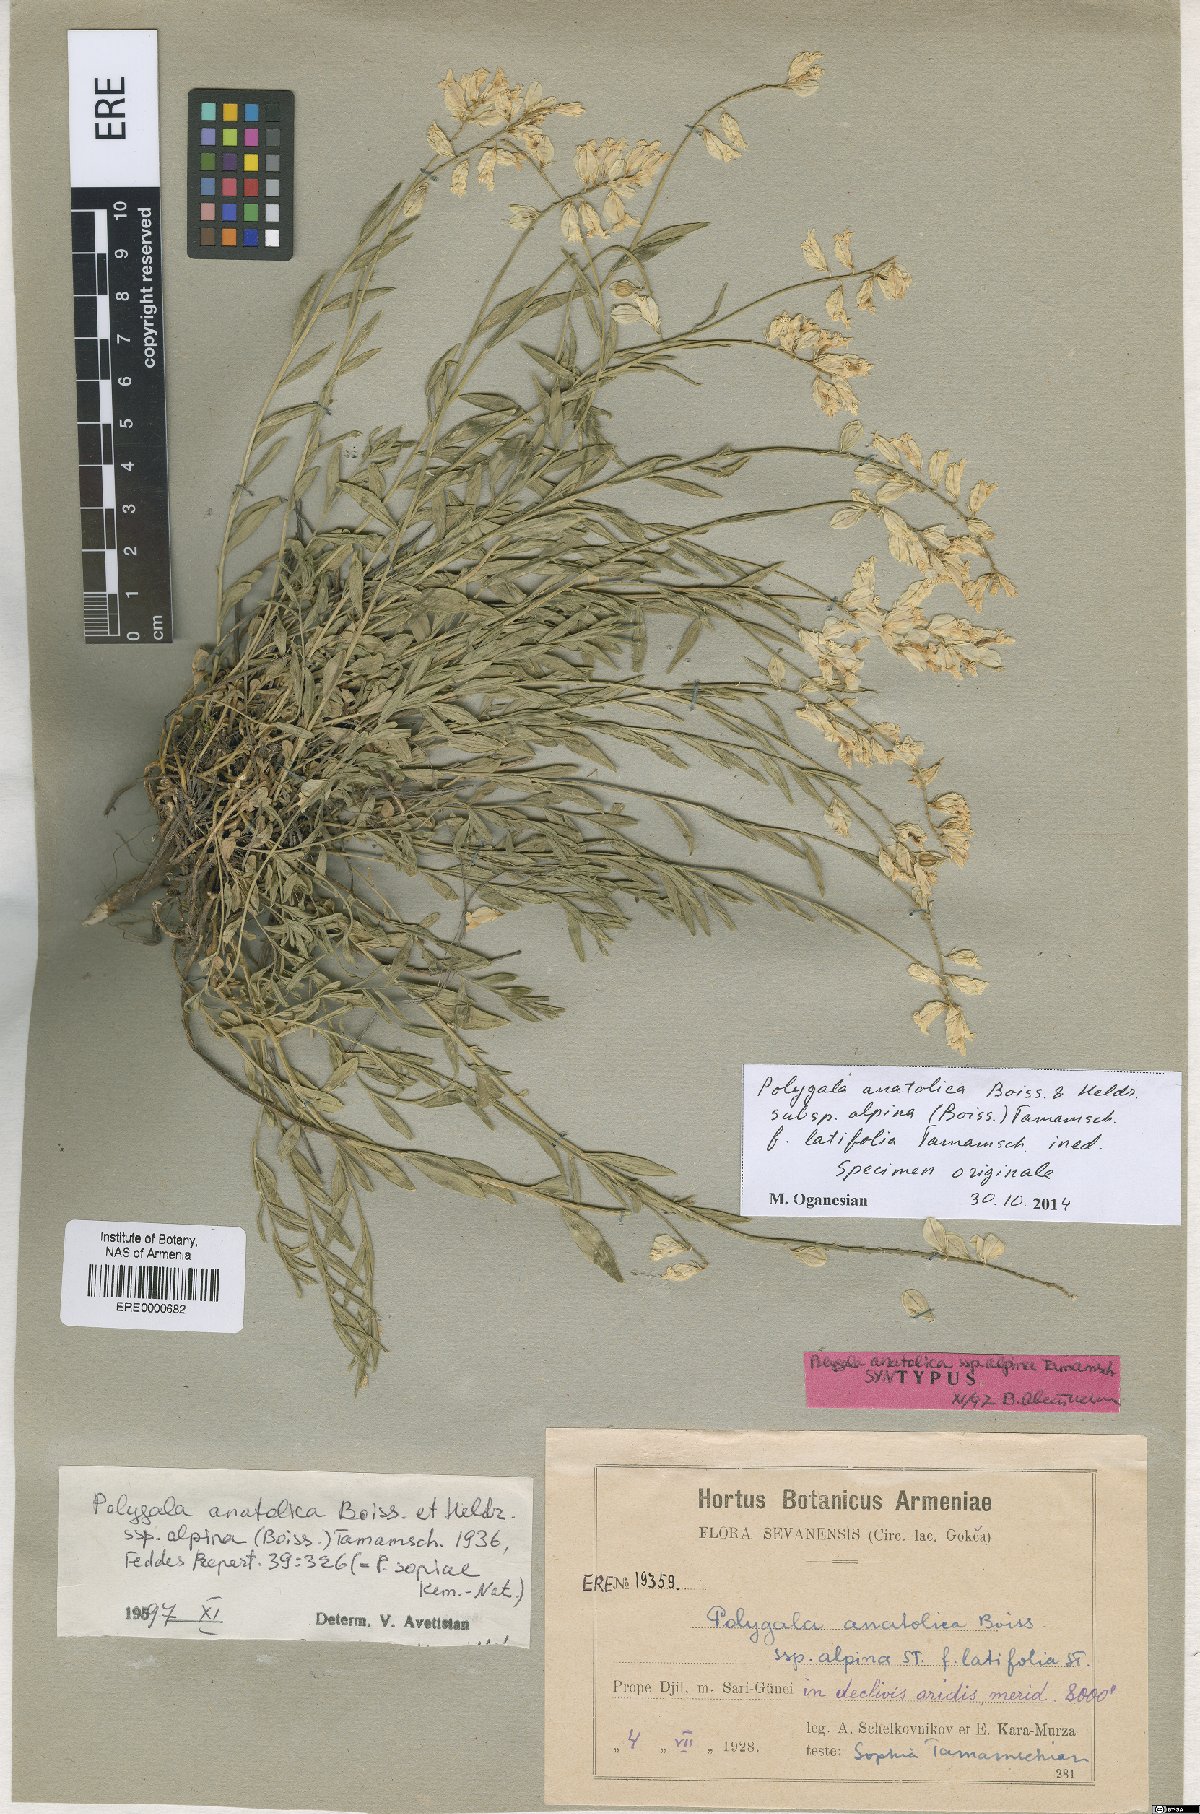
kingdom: Plantae
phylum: Tracheophyta
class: Magnoliopsida
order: Fabales
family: Polygalaceae
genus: Polygala
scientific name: Polygala anatolica
